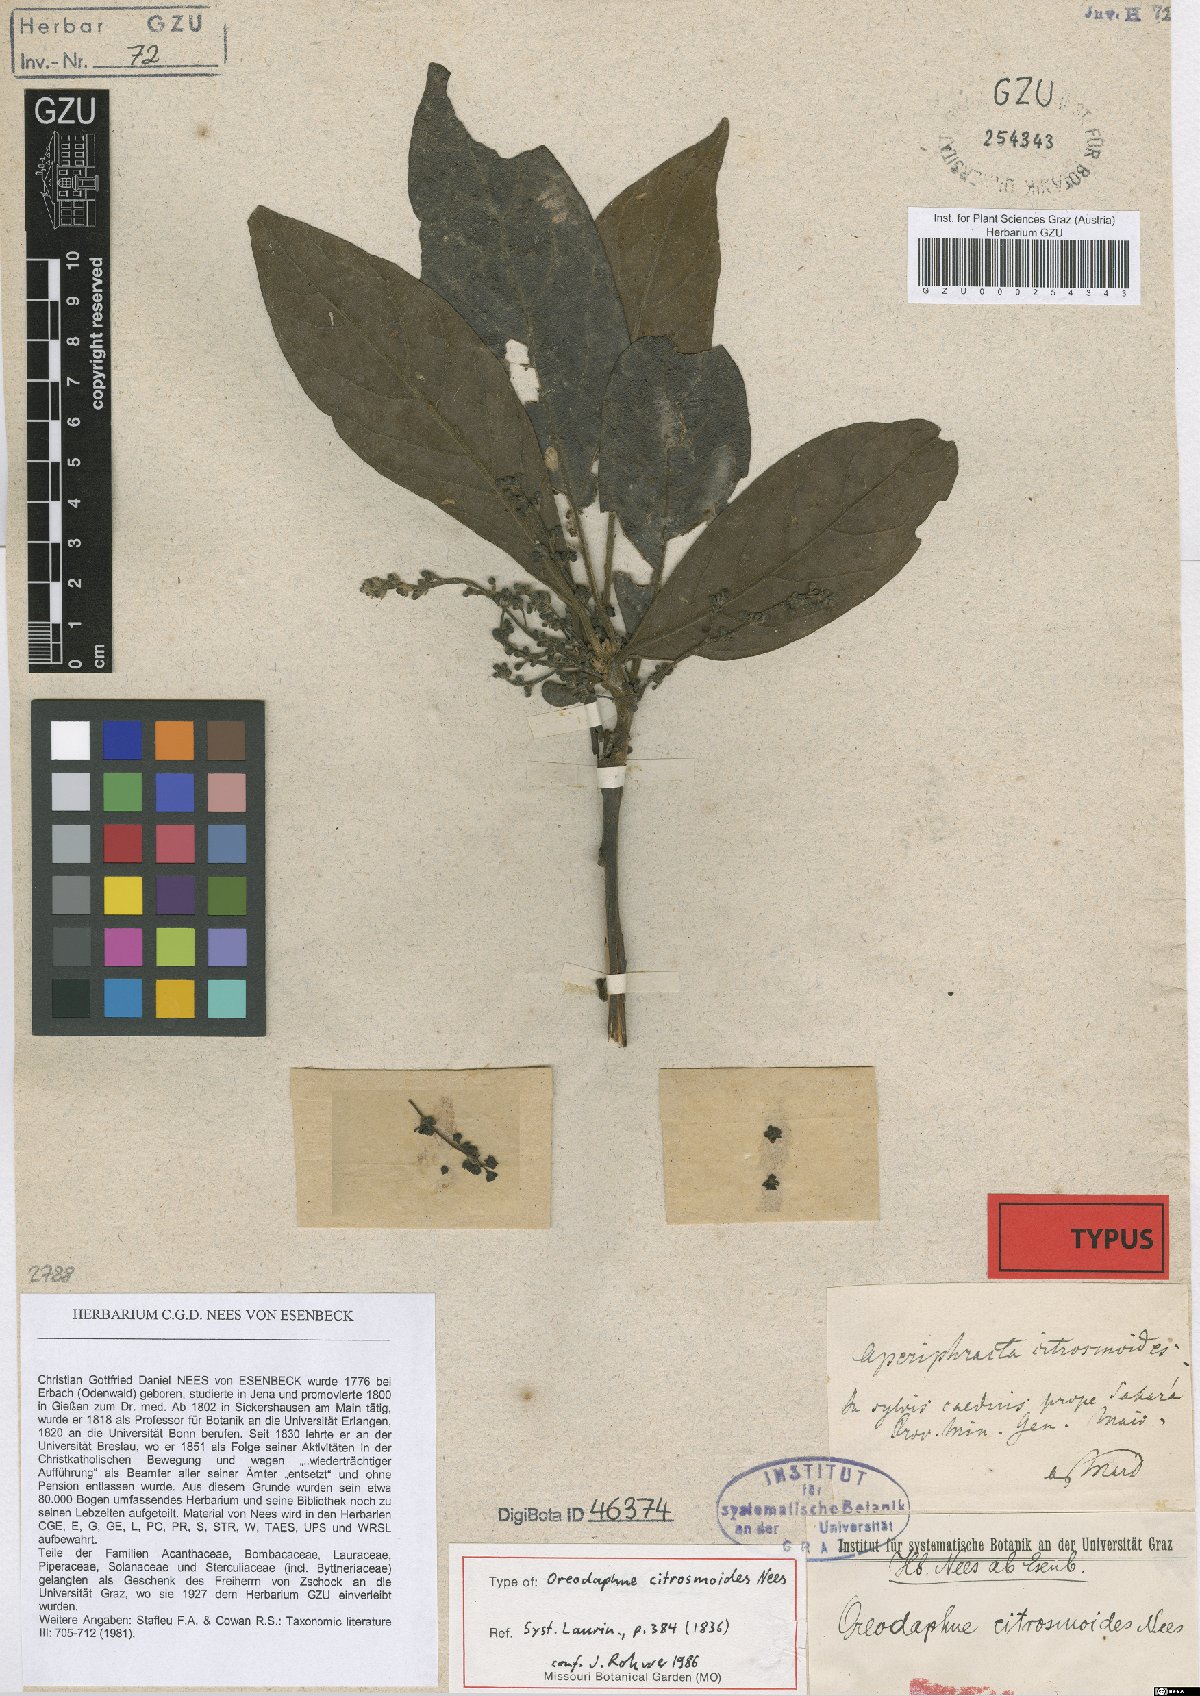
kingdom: Plantae
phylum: Tracheophyta
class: Magnoliopsida
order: Laurales
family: Lauraceae
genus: Ocotea
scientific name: Ocotea citrosmoides
